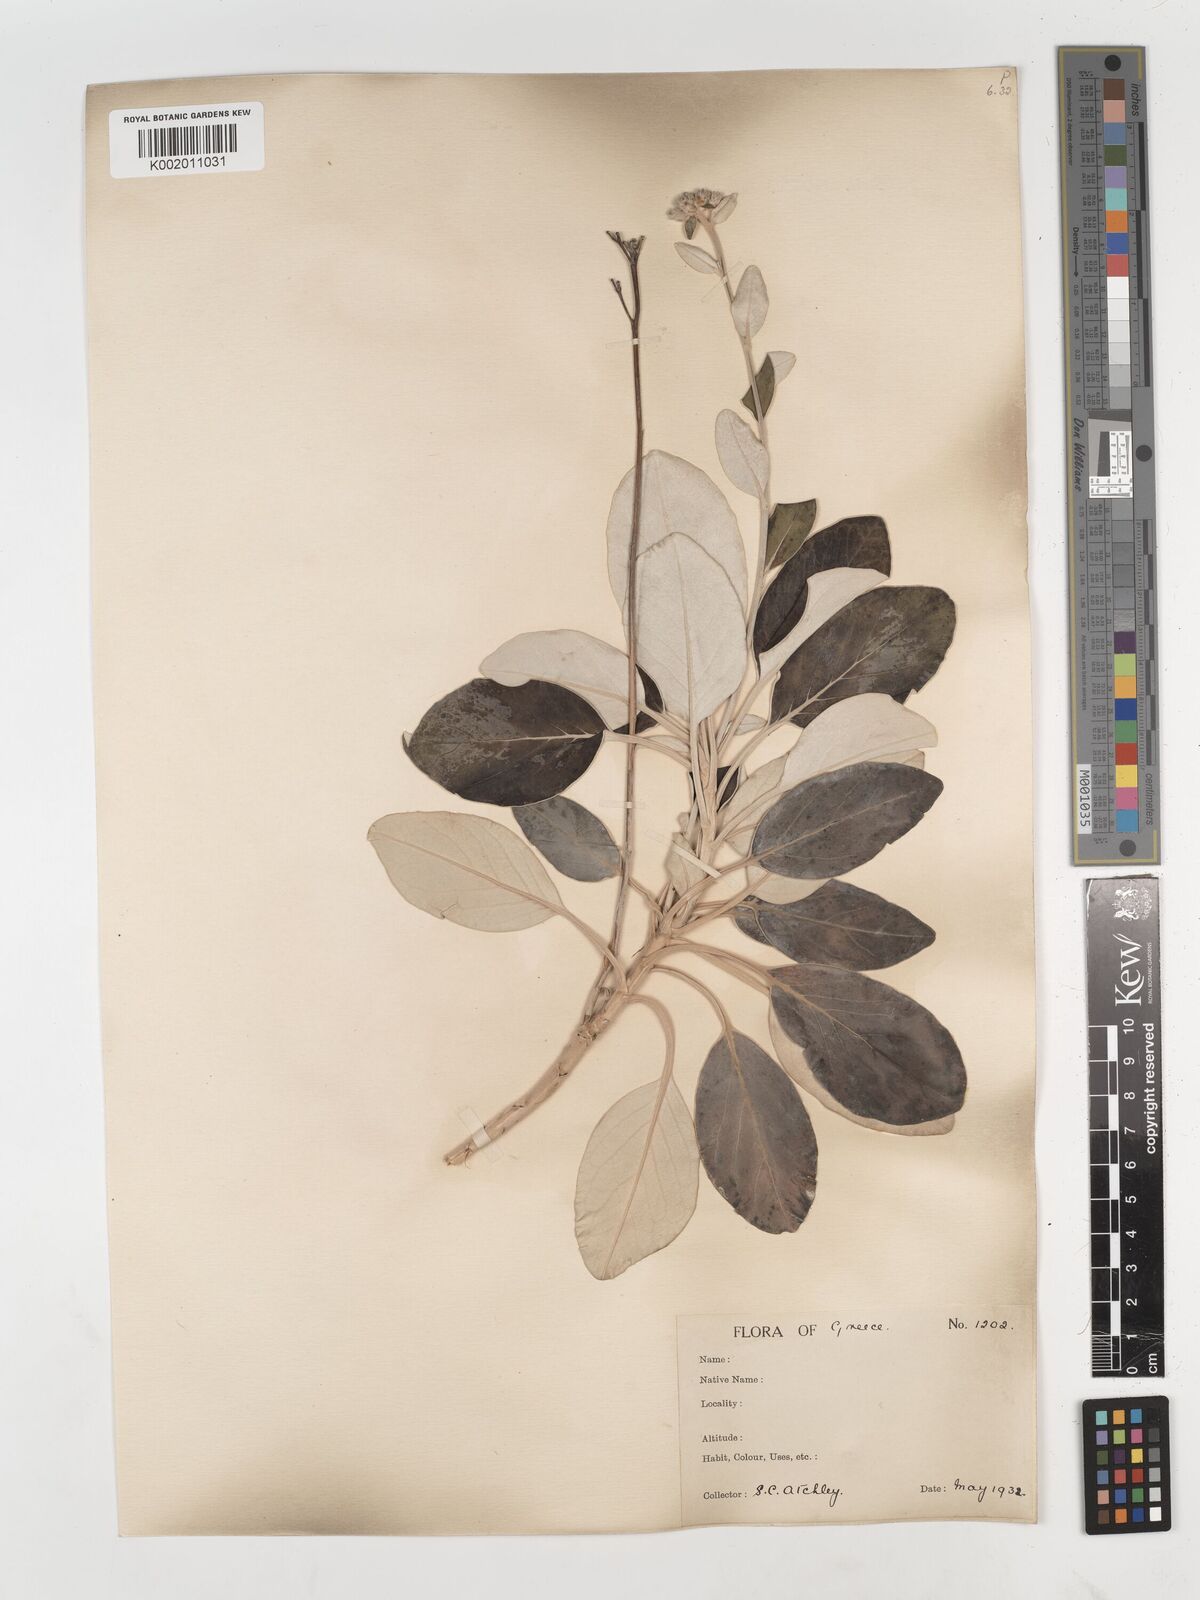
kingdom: Plantae
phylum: Tracheophyta
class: Magnoliopsida
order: Asterales
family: Asteraceae
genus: Staehelina
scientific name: Staehelina petiolata
